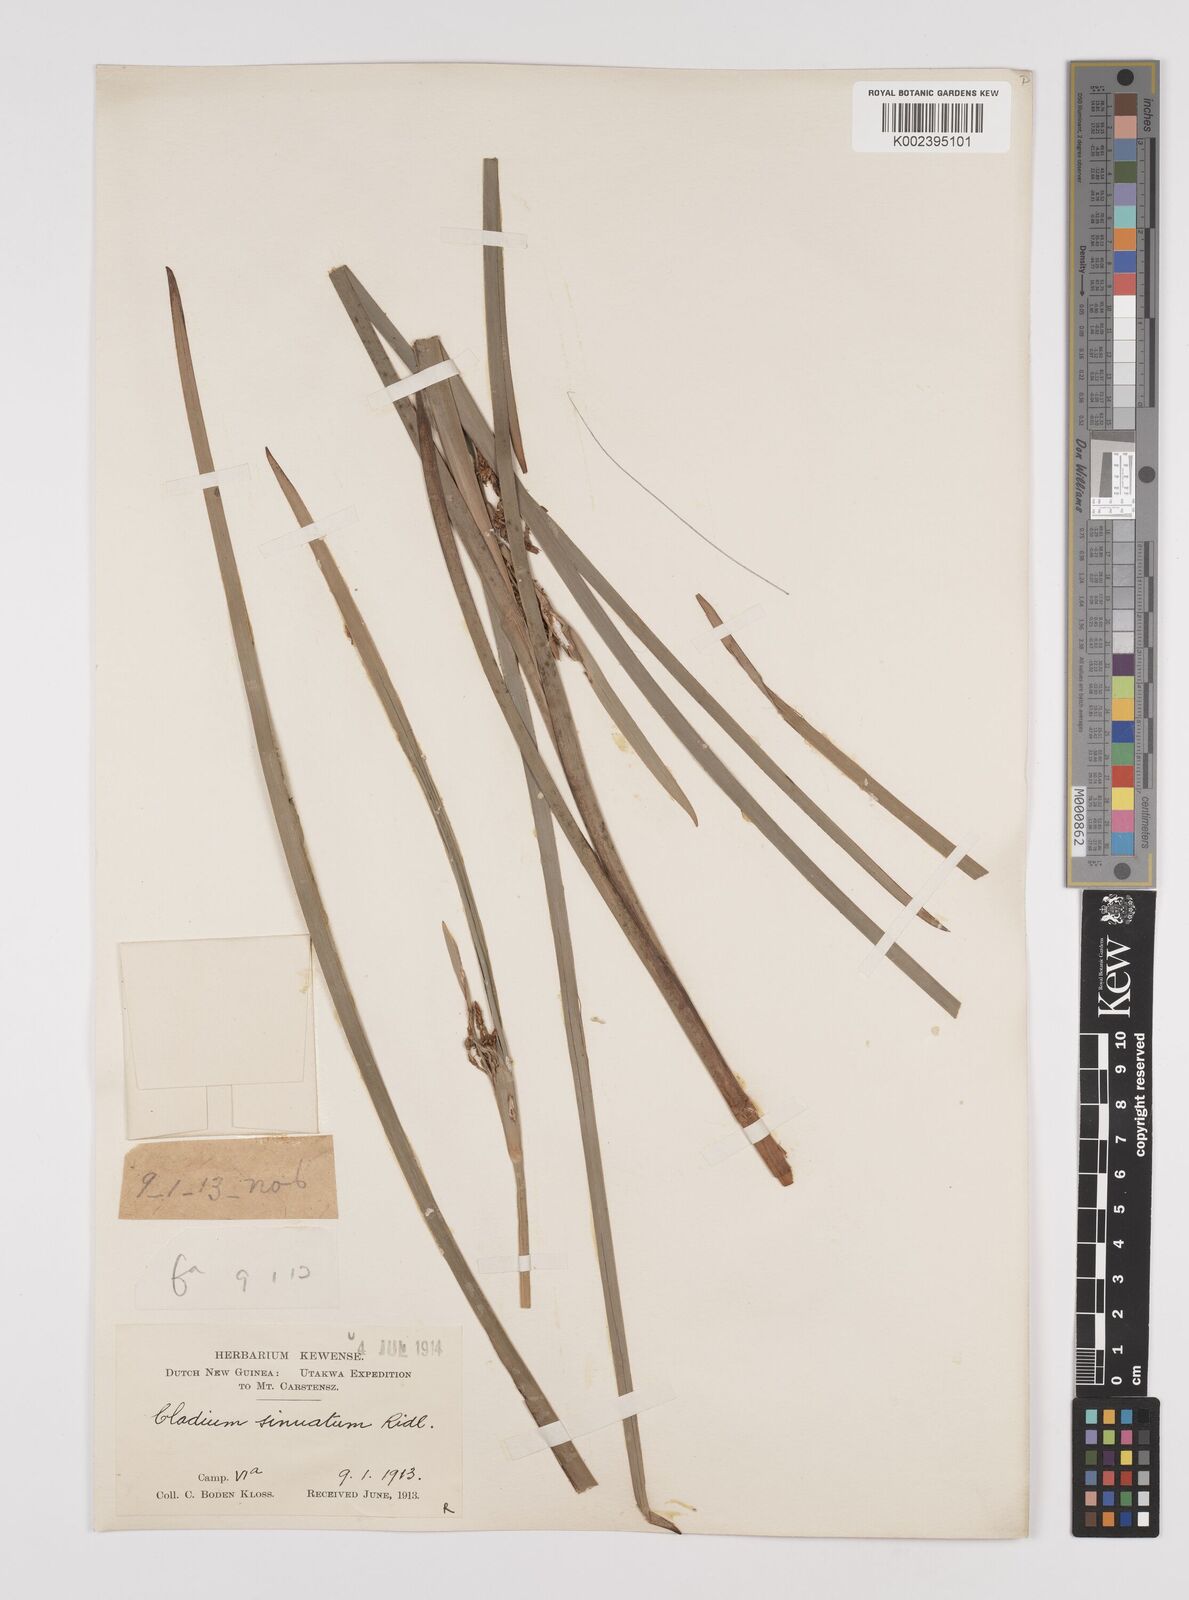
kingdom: Plantae
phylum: Tracheophyta
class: Liliopsida
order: Poales
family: Cyperaceae
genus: Machaerina
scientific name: Machaerina glomerata
